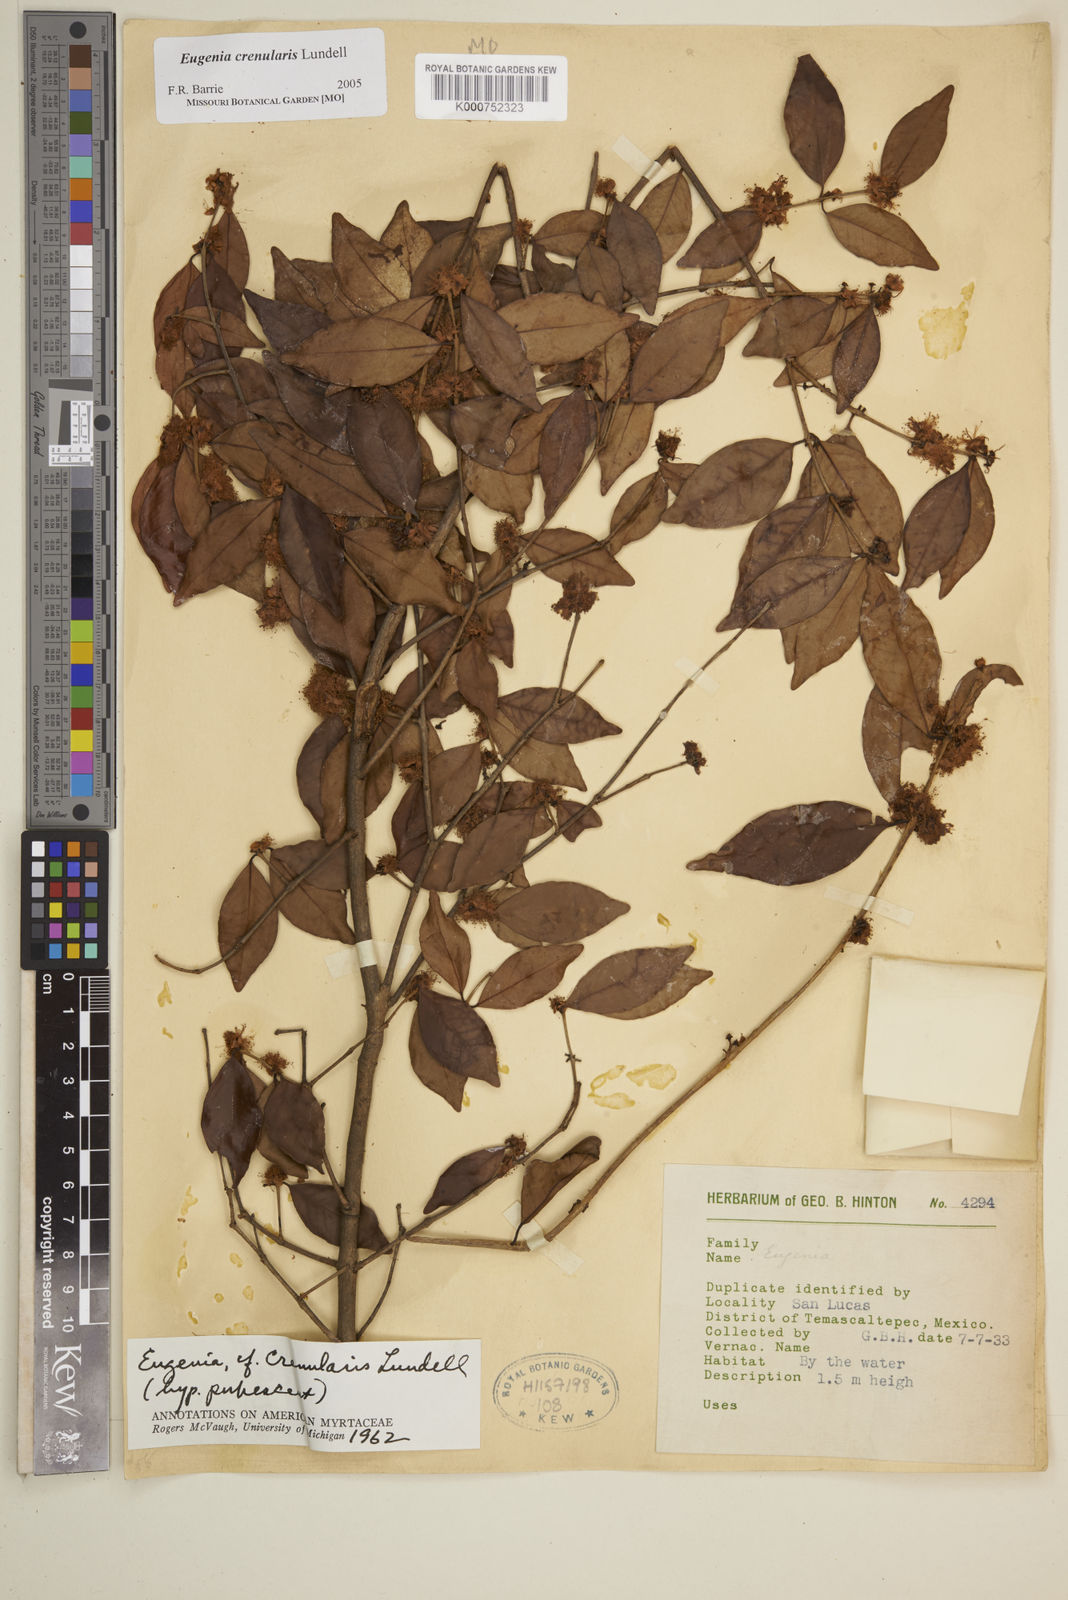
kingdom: Plantae
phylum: Tracheophyta
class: Magnoliopsida
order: Myrtales
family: Myrtaceae
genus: Eugenia
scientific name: Eugenia crenularis
